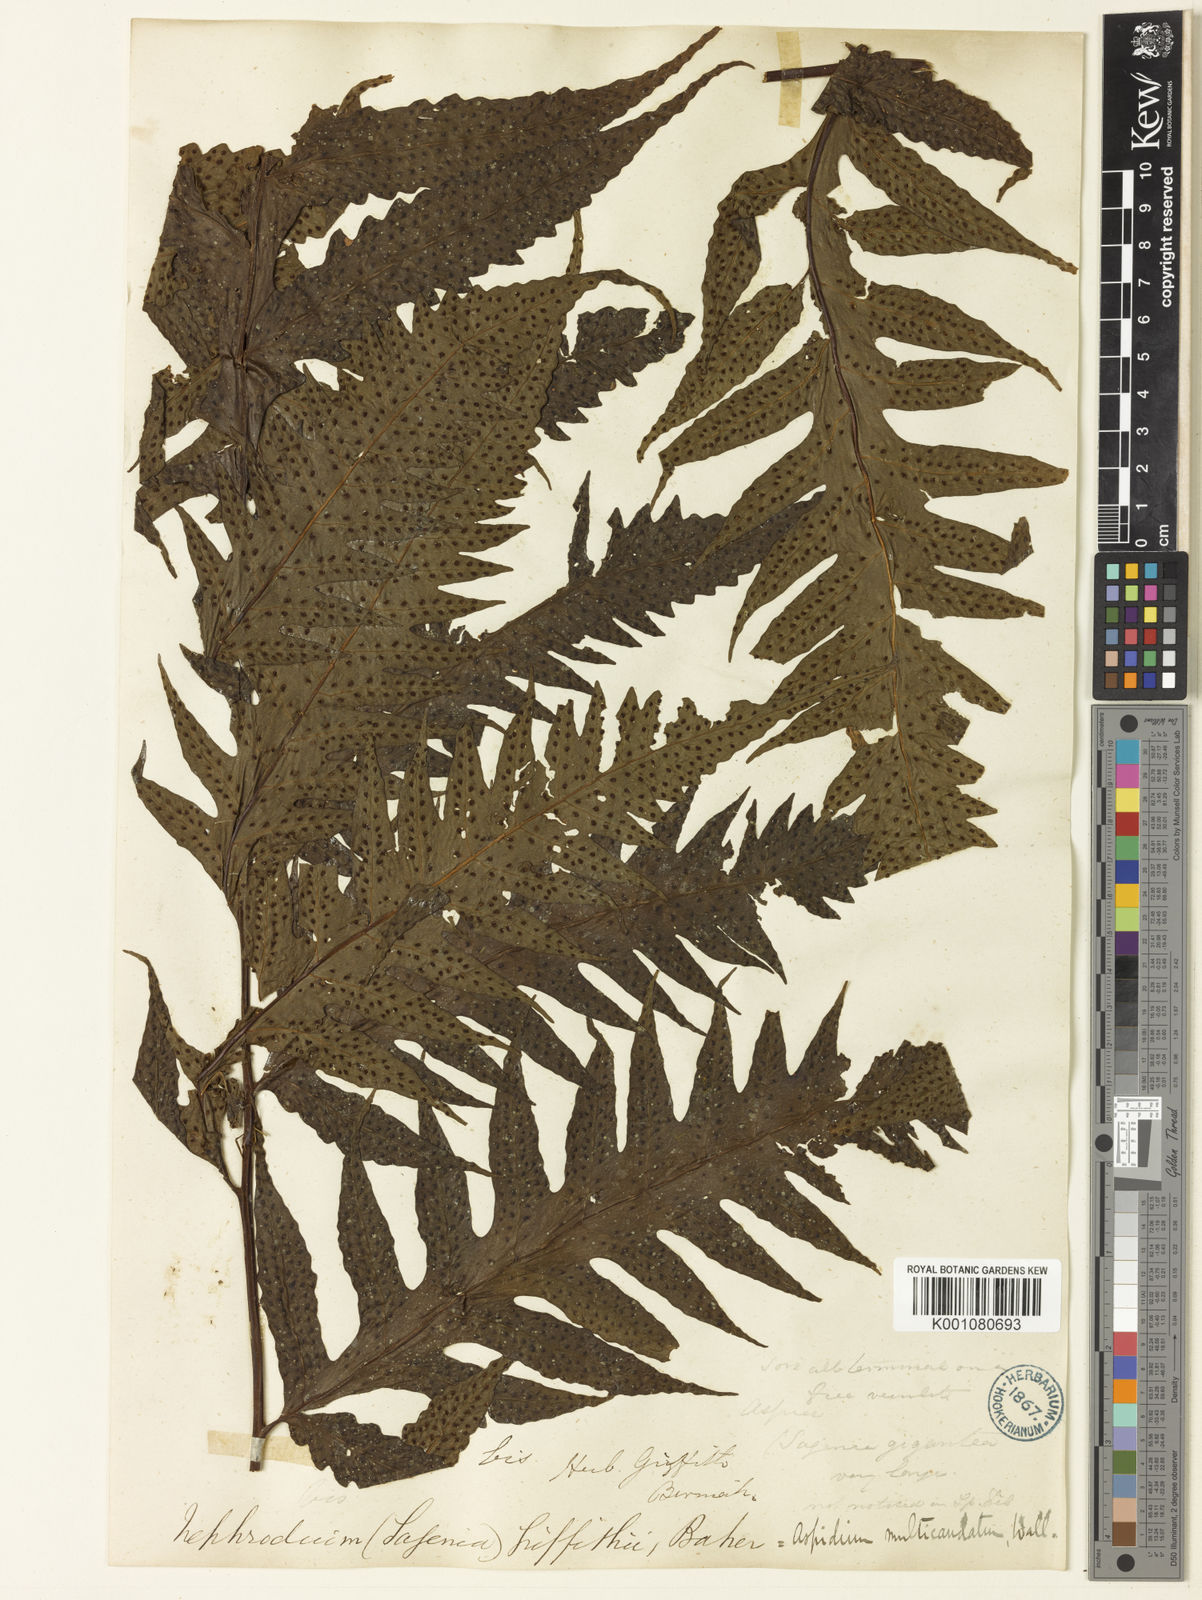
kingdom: Plantae
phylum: Tracheophyta
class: Polypodiopsida
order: Polypodiales
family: Tectariaceae
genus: Tectaria
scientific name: Tectaria griffithii
